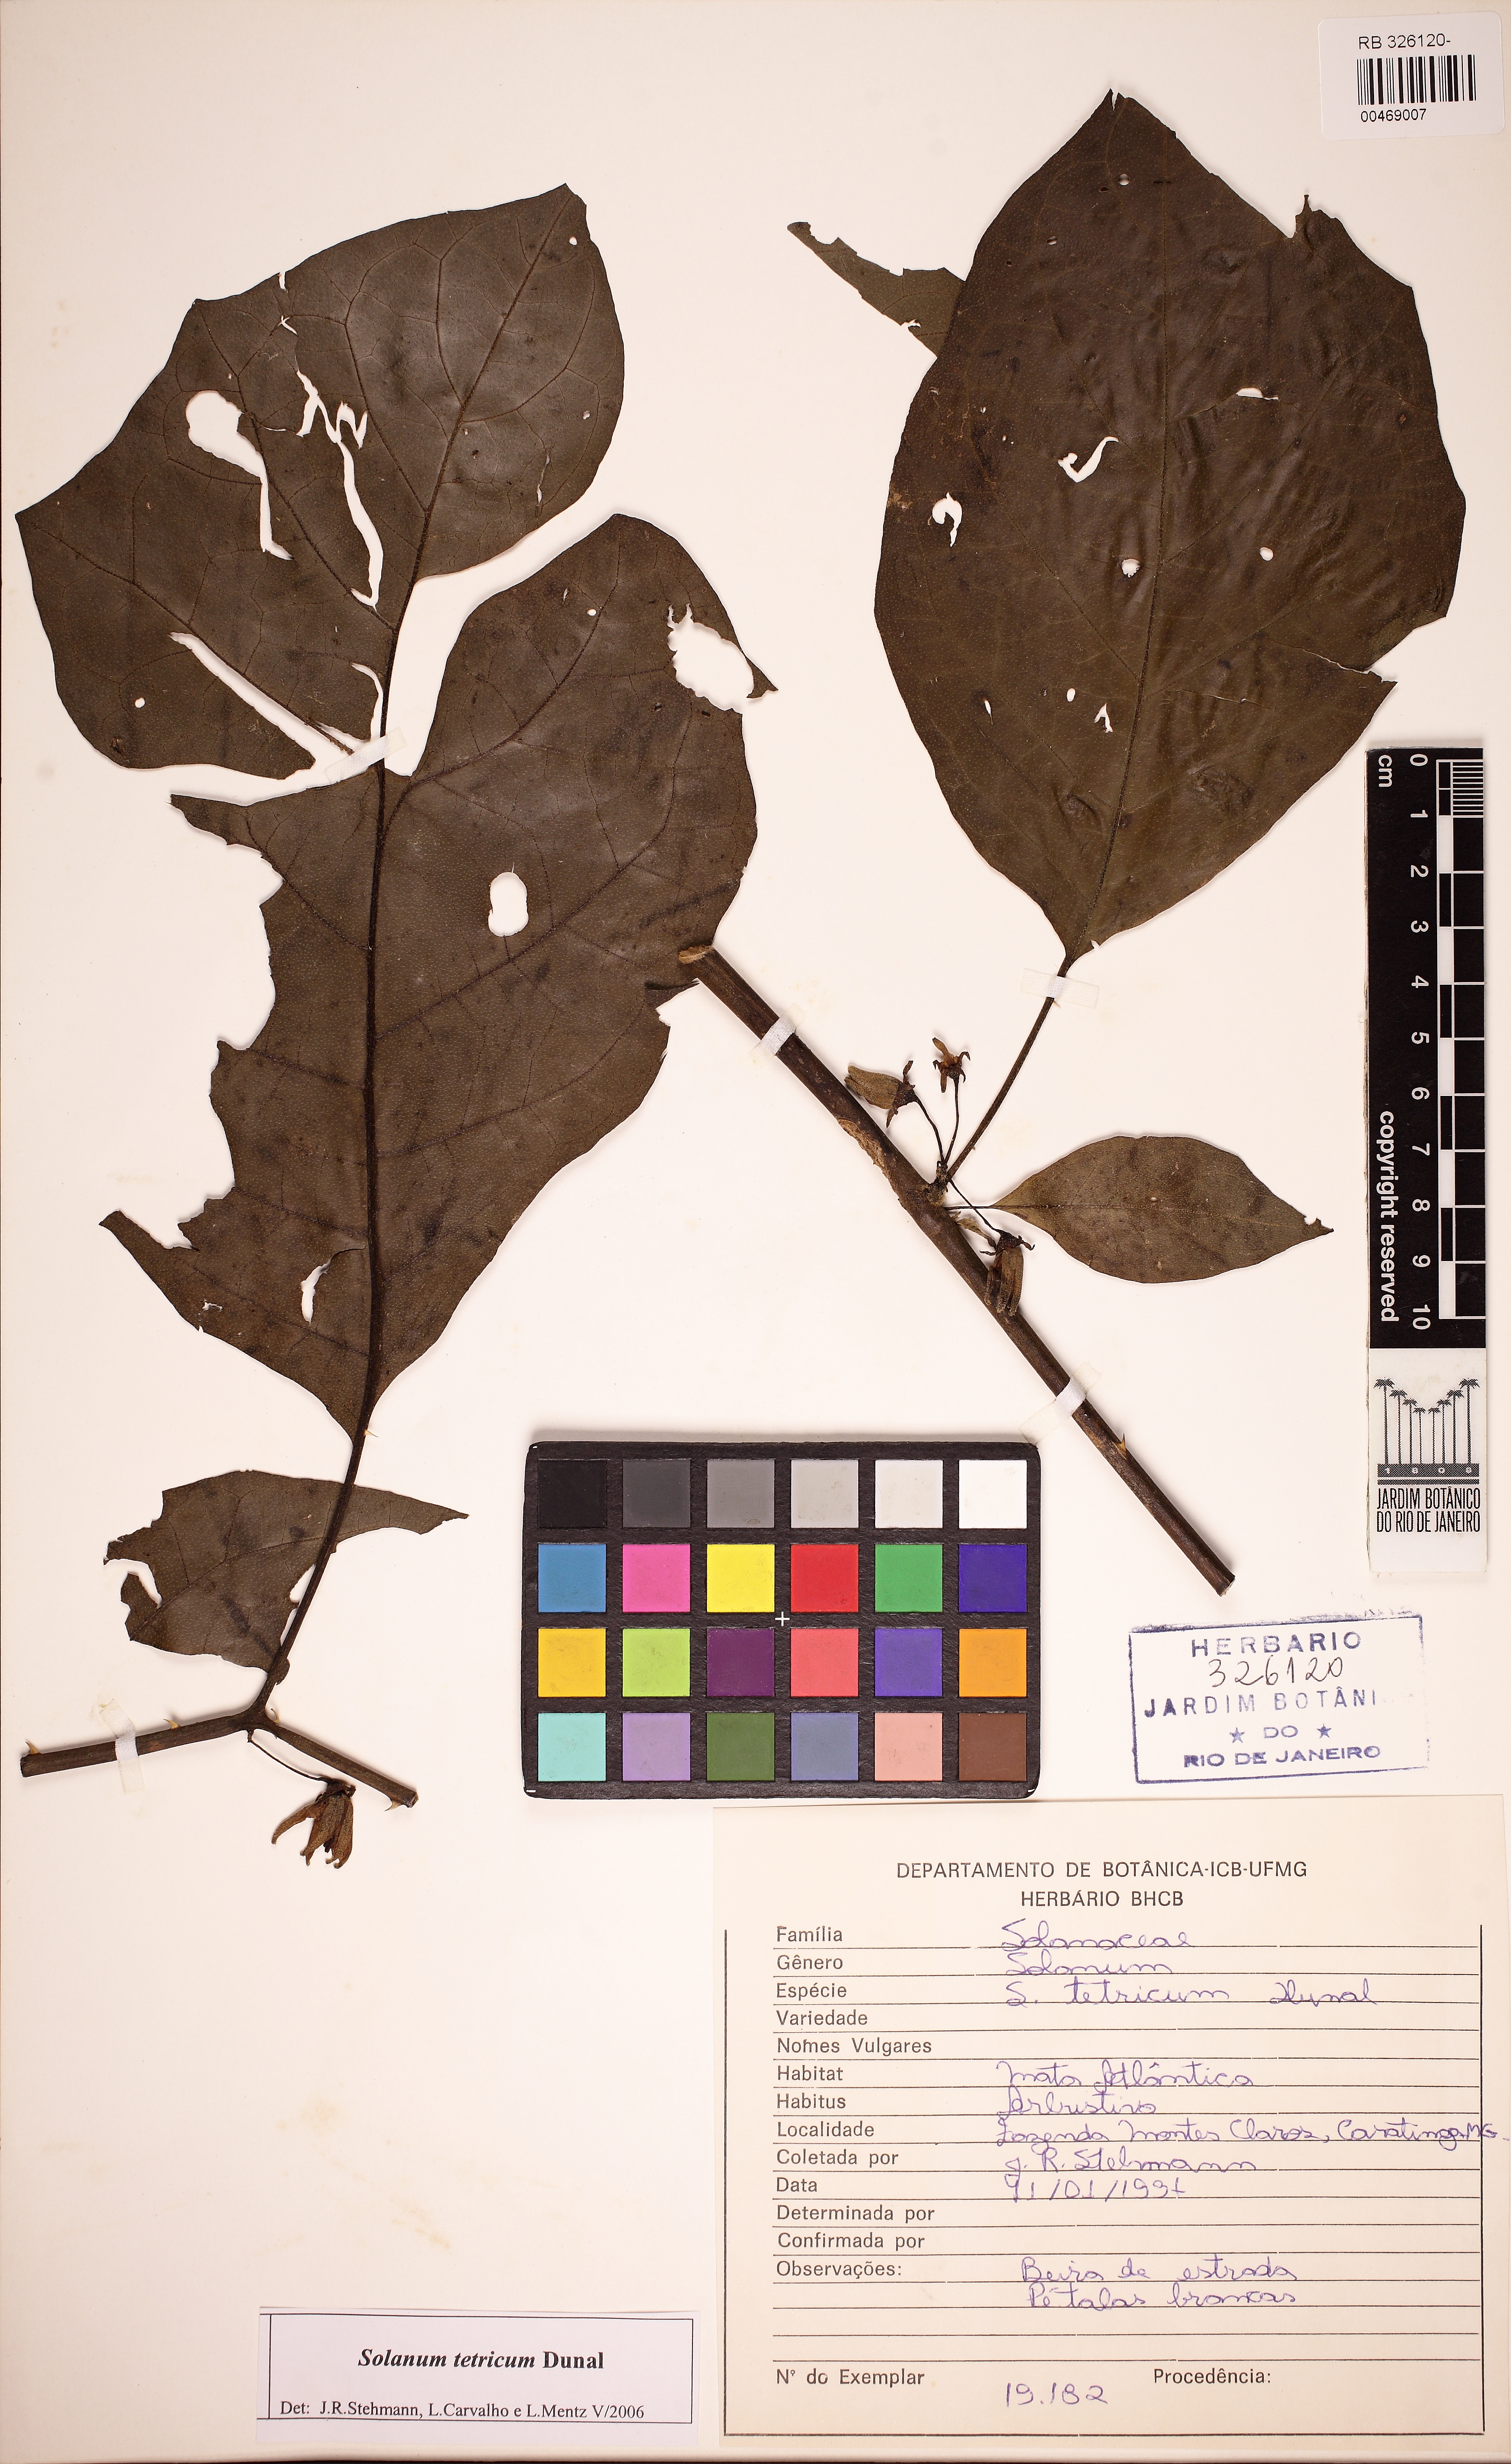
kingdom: Plantae
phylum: Tracheophyta
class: Magnoliopsida
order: Solanales
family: Solanaceae
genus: Solanum
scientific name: Solanum asterophorum
